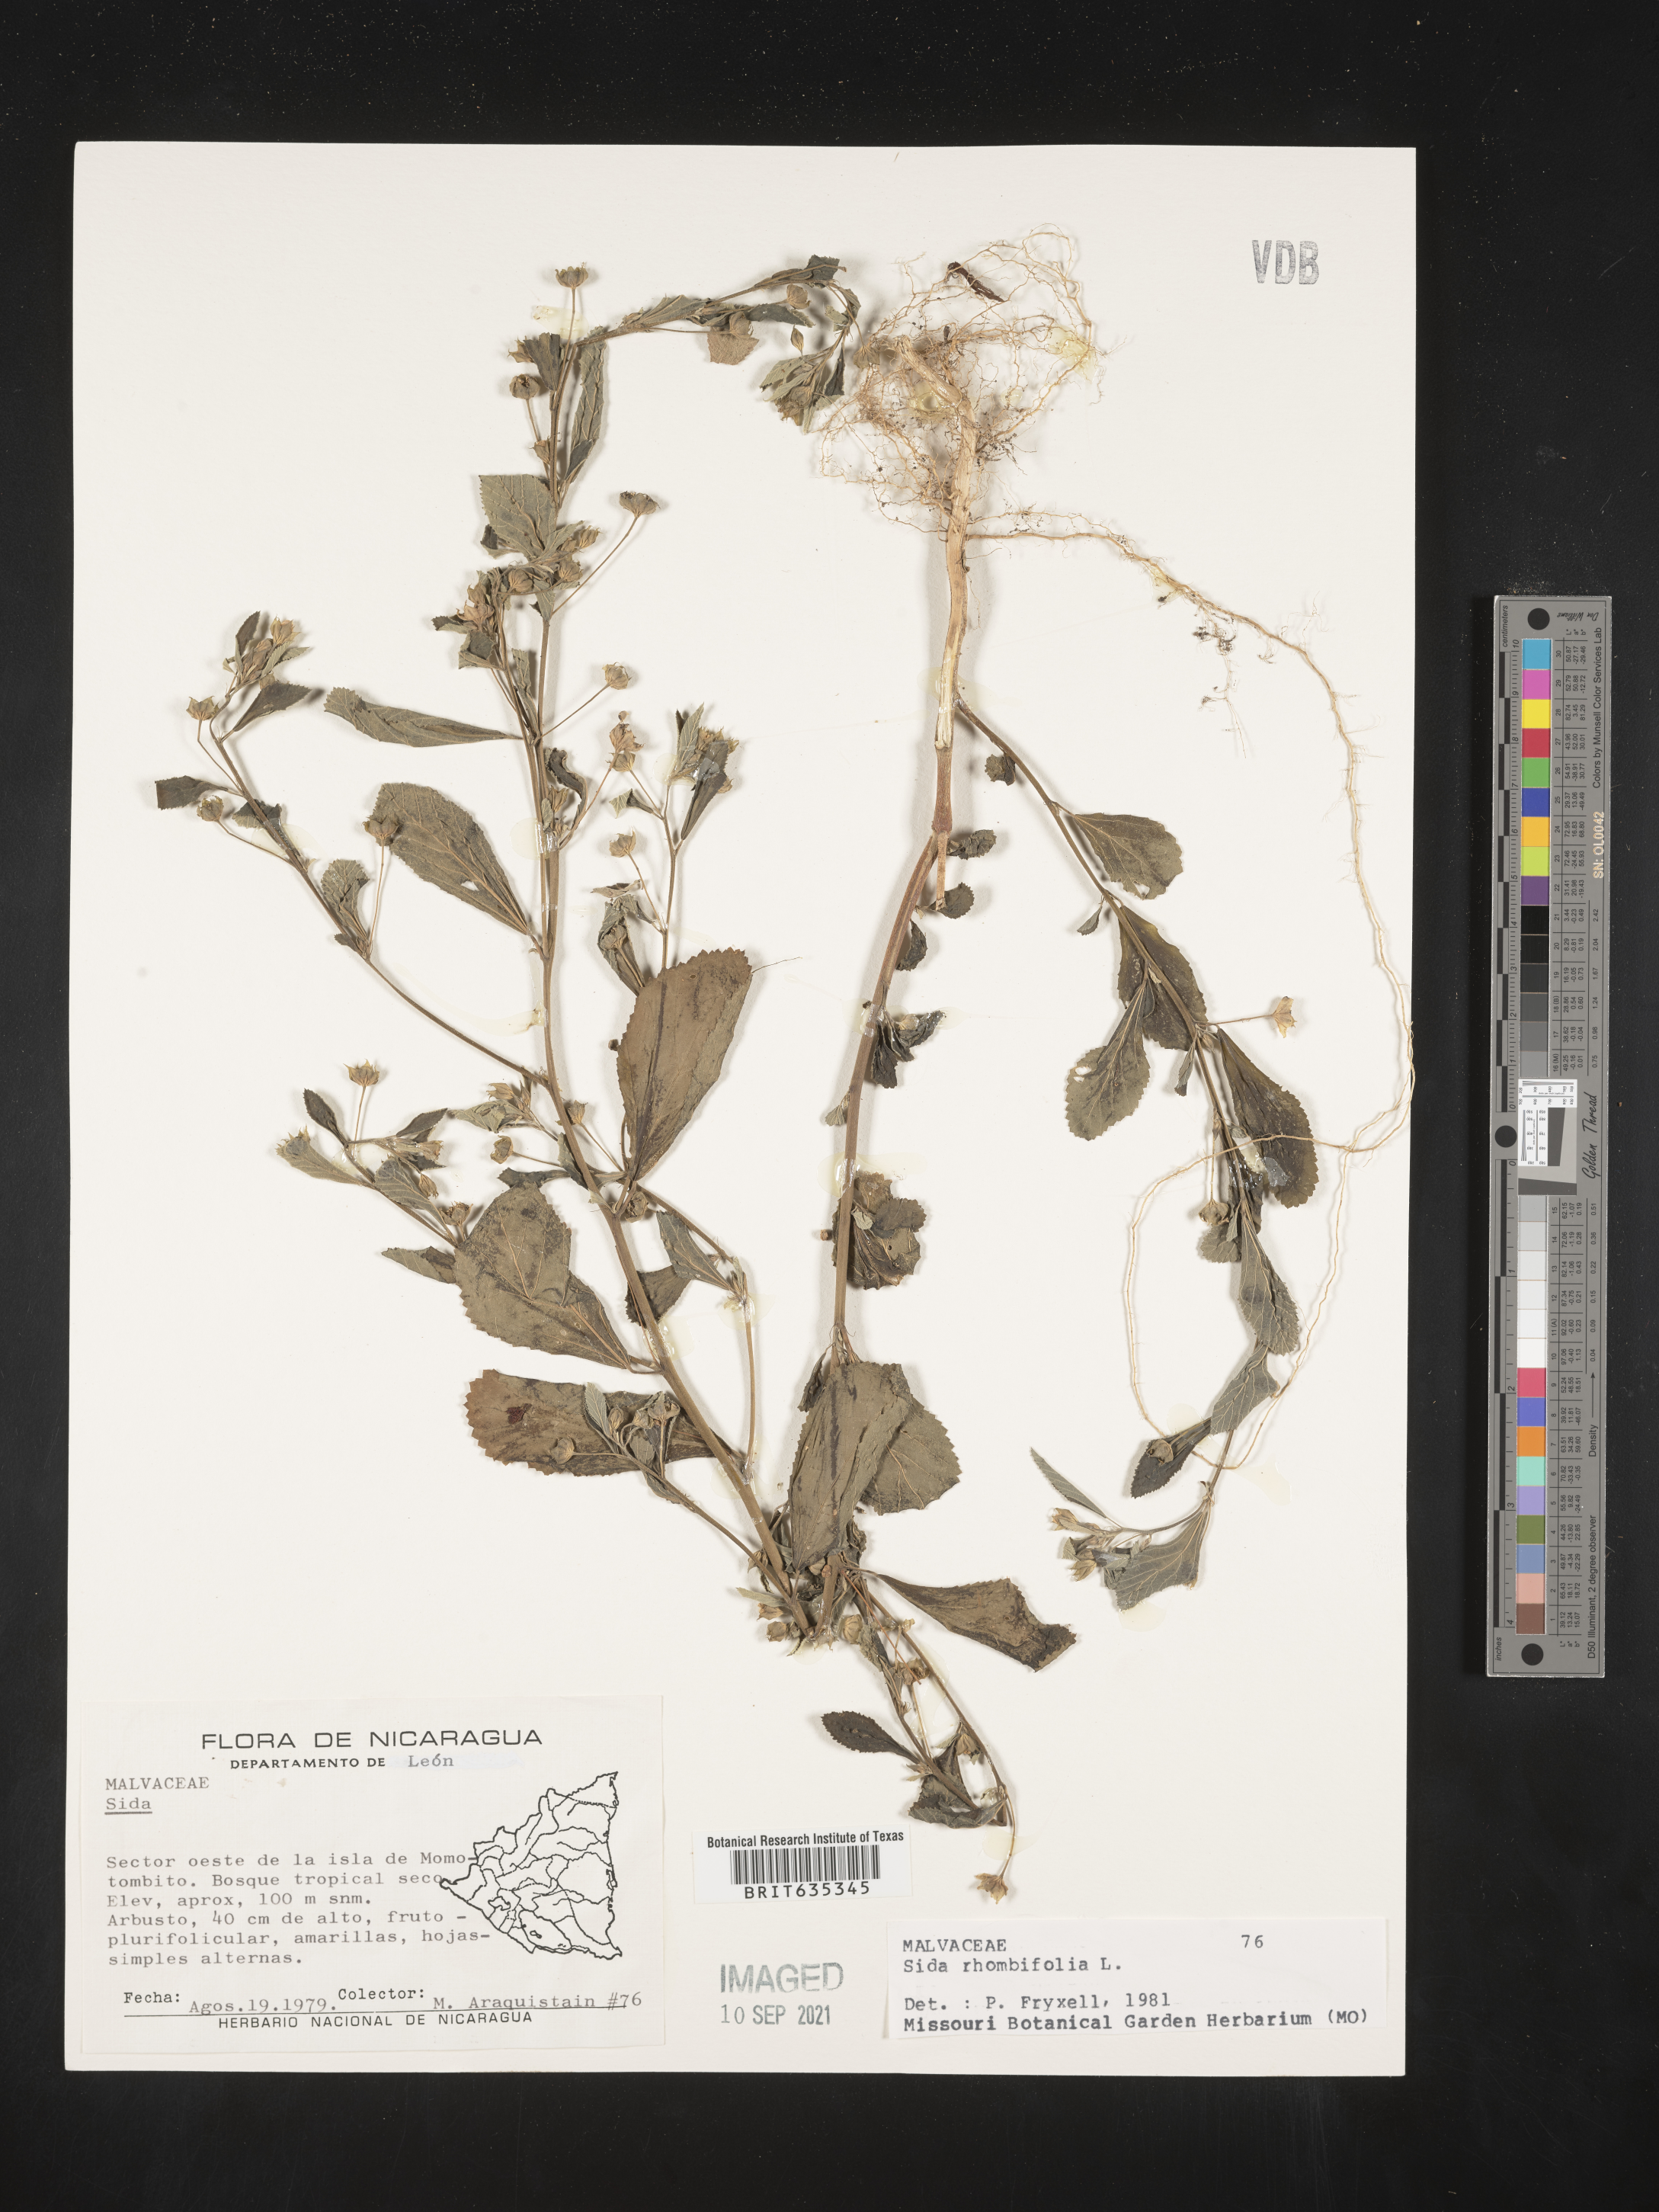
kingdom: Plantae
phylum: Tracheophyta
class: Magnoliopsida
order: Malvales
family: Malvaceae
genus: Sida
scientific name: Sida
